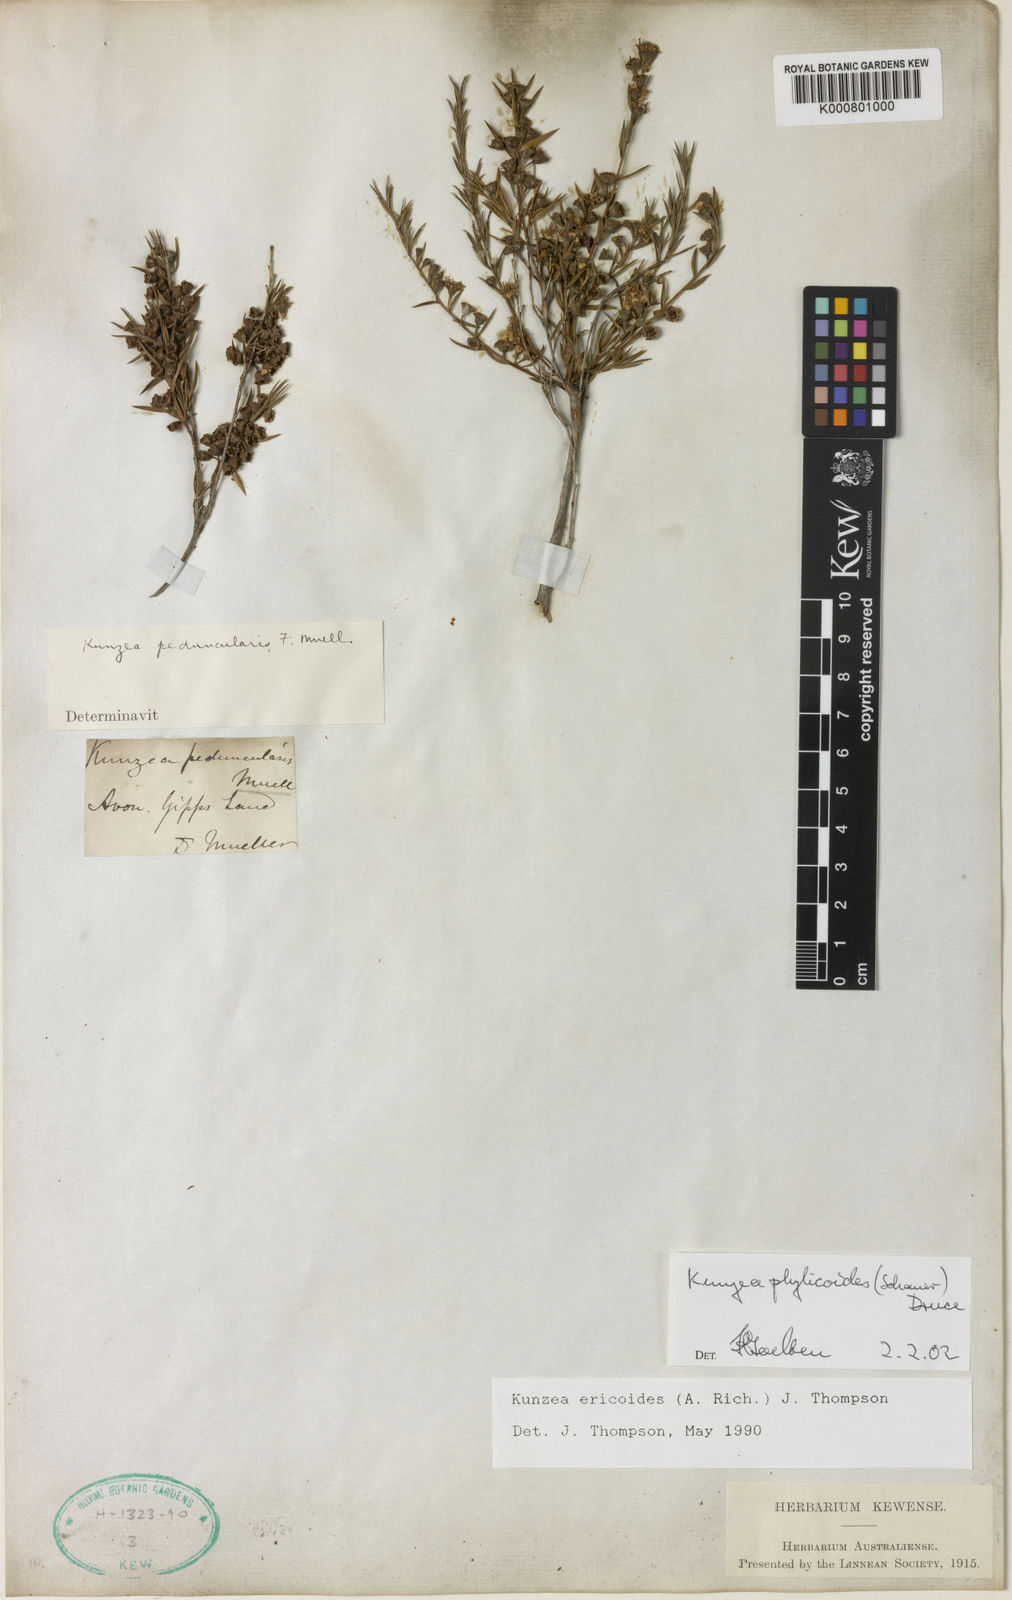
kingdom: Plantae
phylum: Tracheophyta
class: Magnoliopsida
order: Myrtales
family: Myrtaceae
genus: Kunzea
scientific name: Kunzea ericoides
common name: Burgan
